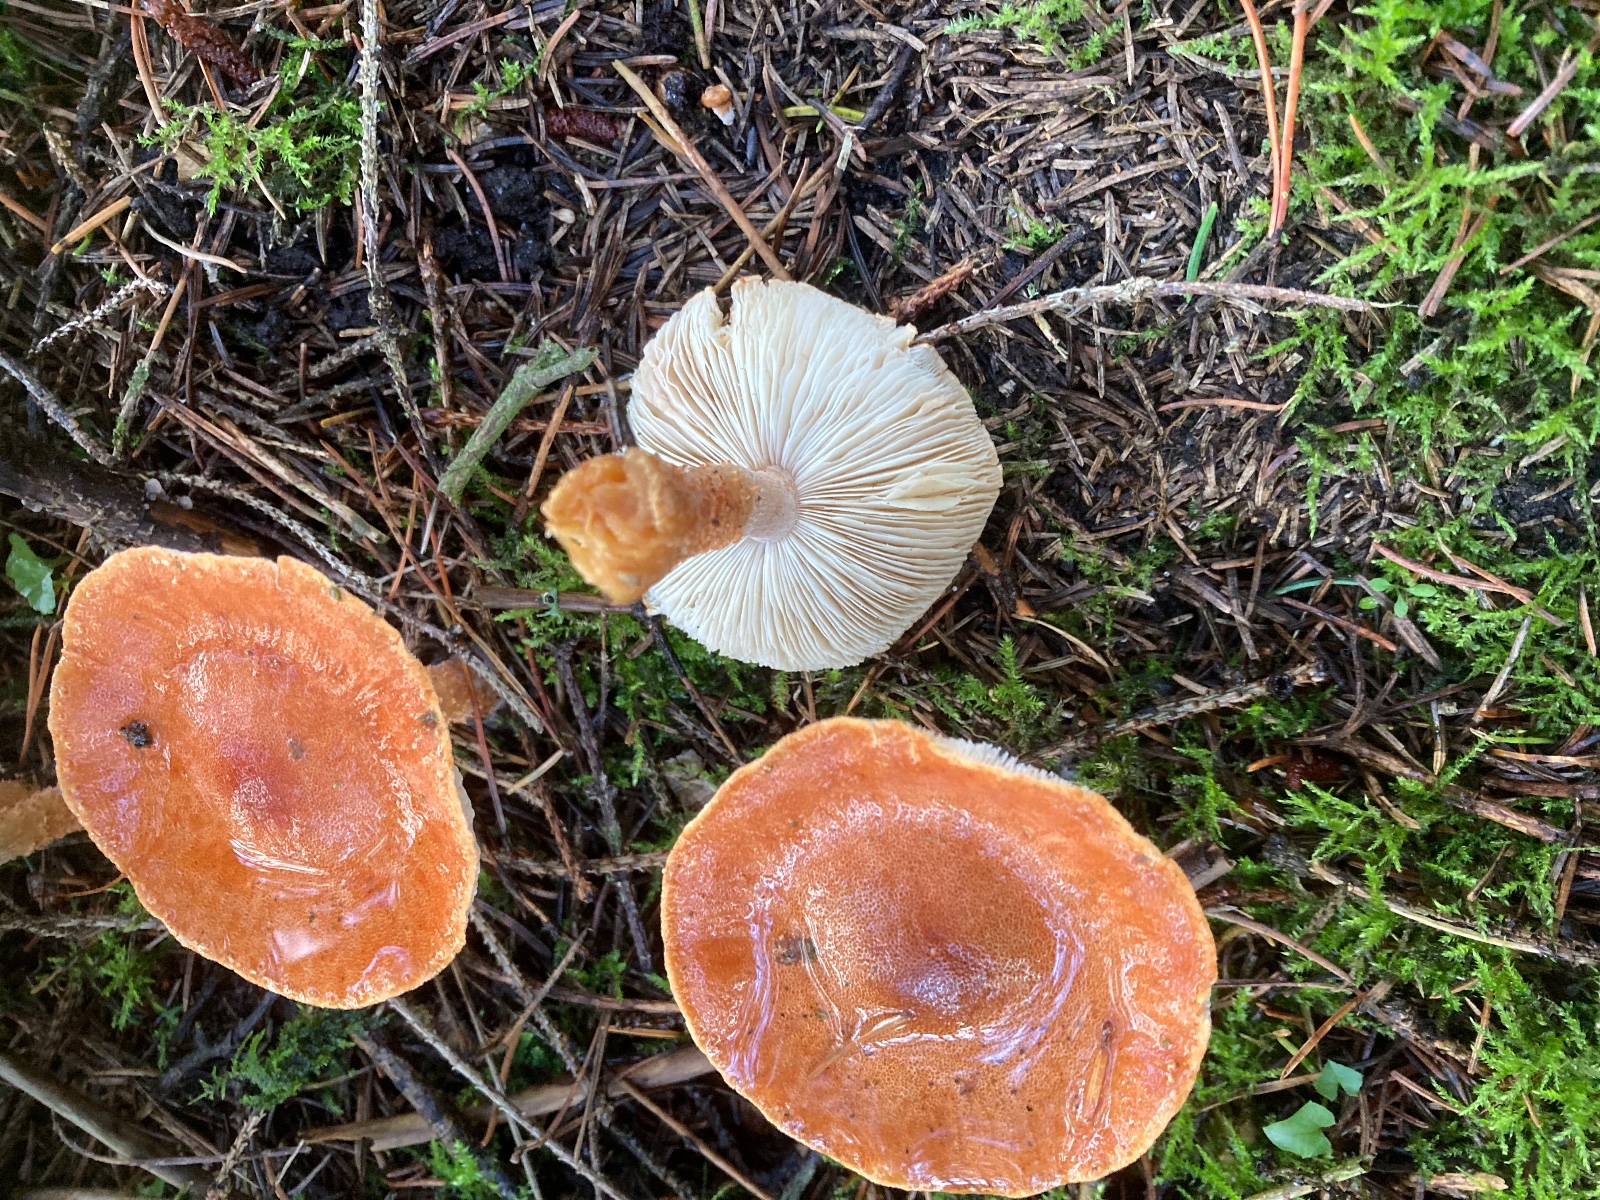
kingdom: Fungi
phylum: Basidiomycota
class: Agaricomycetes
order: Agaricales
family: Agaricaceae
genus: Cystodermella
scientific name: Cystodermella
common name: grynhat
